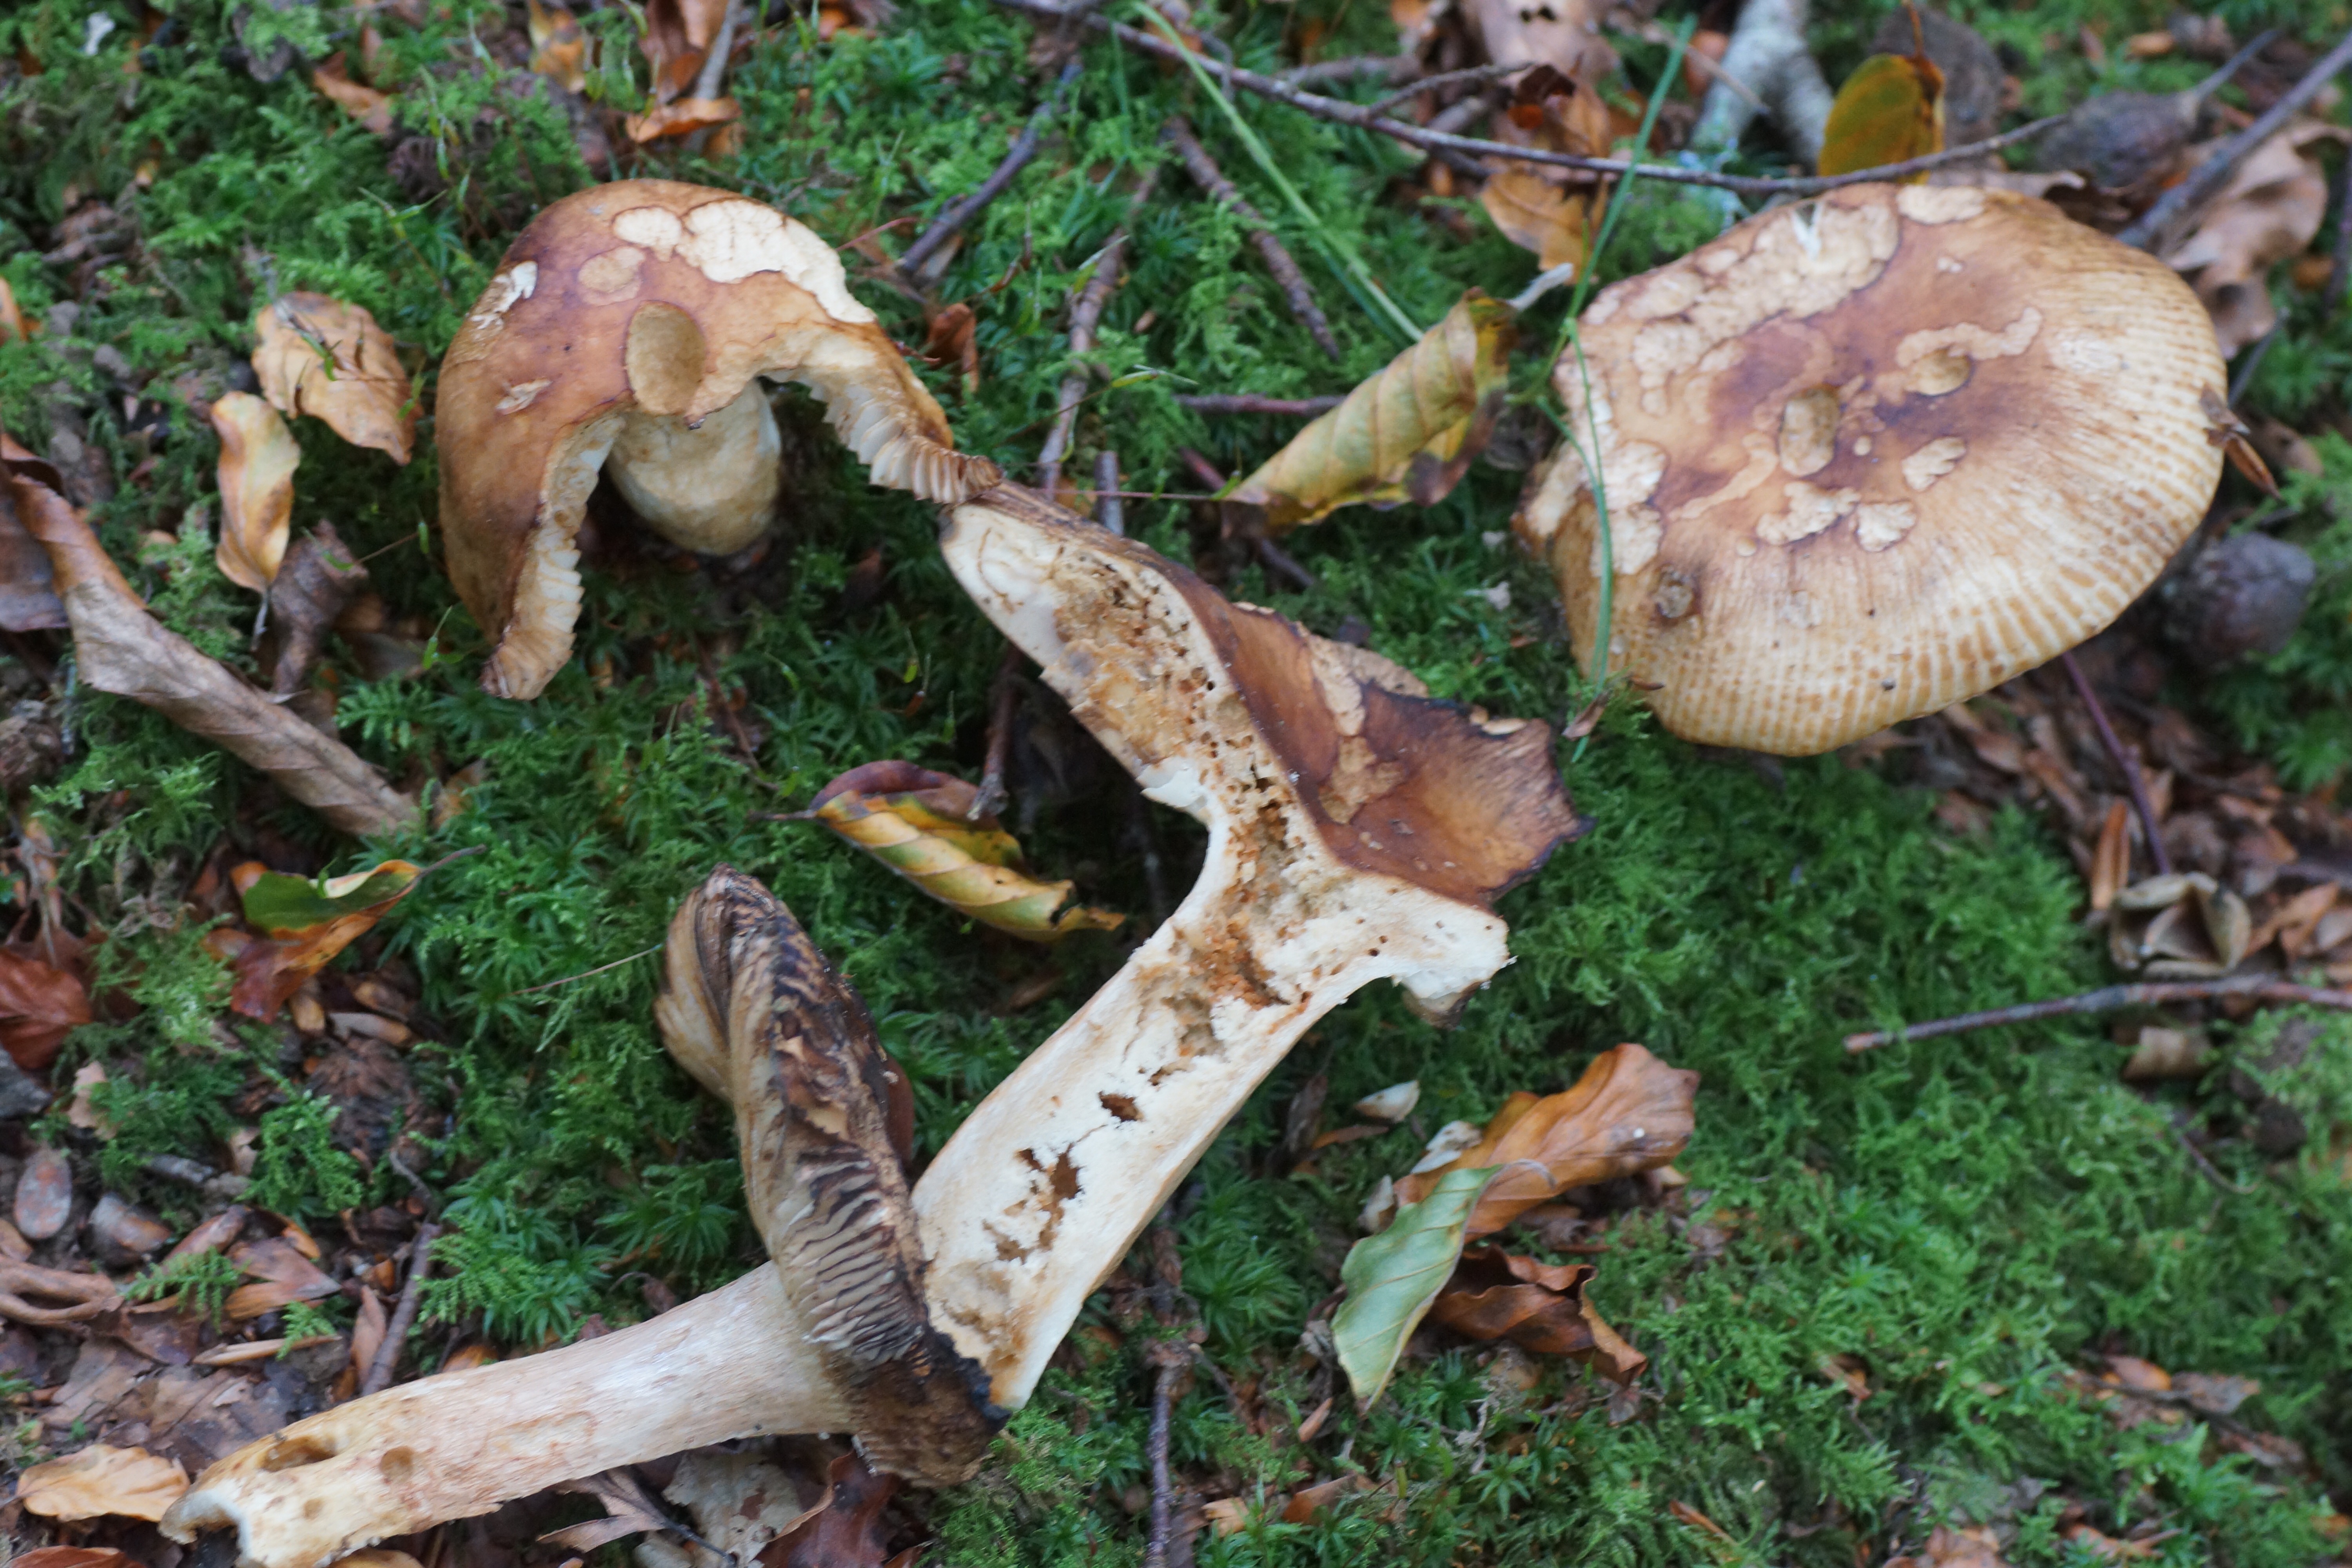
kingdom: Fungi
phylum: Basidiomycota
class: Agaricomycetes
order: Russulales
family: Russulaceae
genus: Russula
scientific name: Russula
